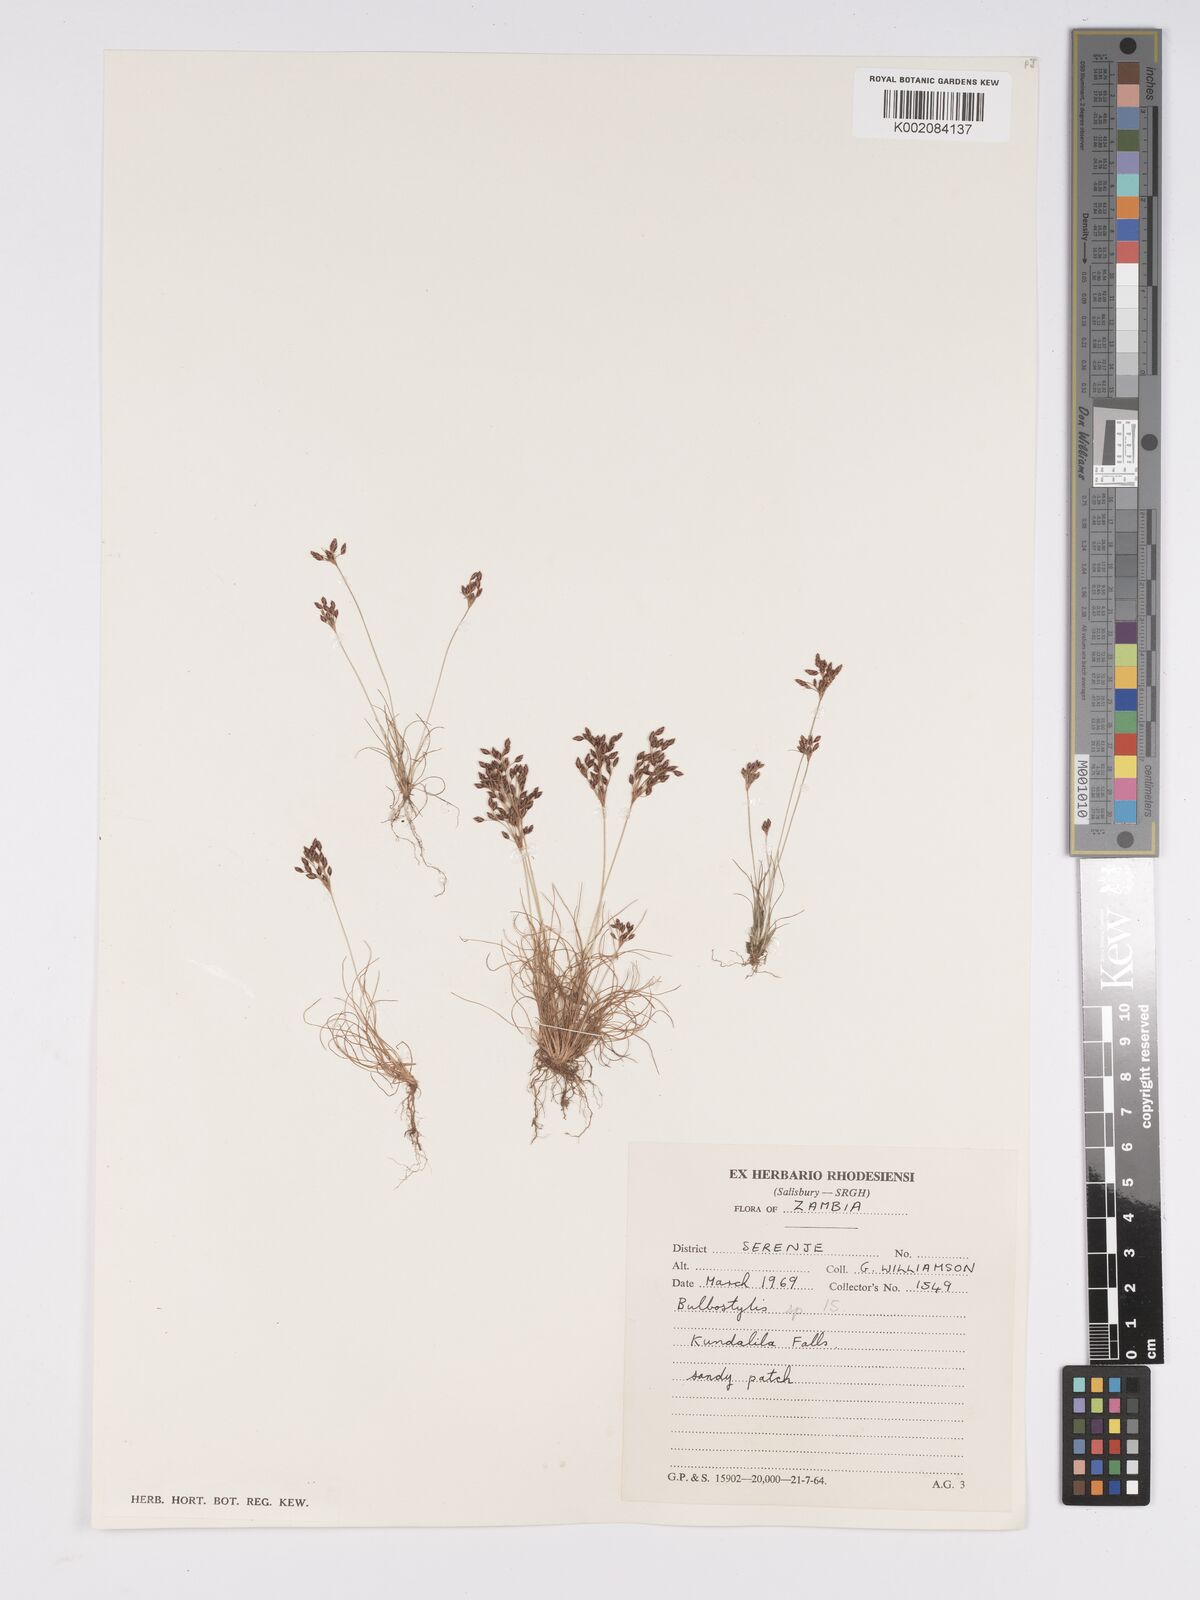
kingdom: Plantae
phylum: Tracheophyta
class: Liliopsida
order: Poales
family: Cyperaceae
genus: Bulbostylis
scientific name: Bulbostylis
